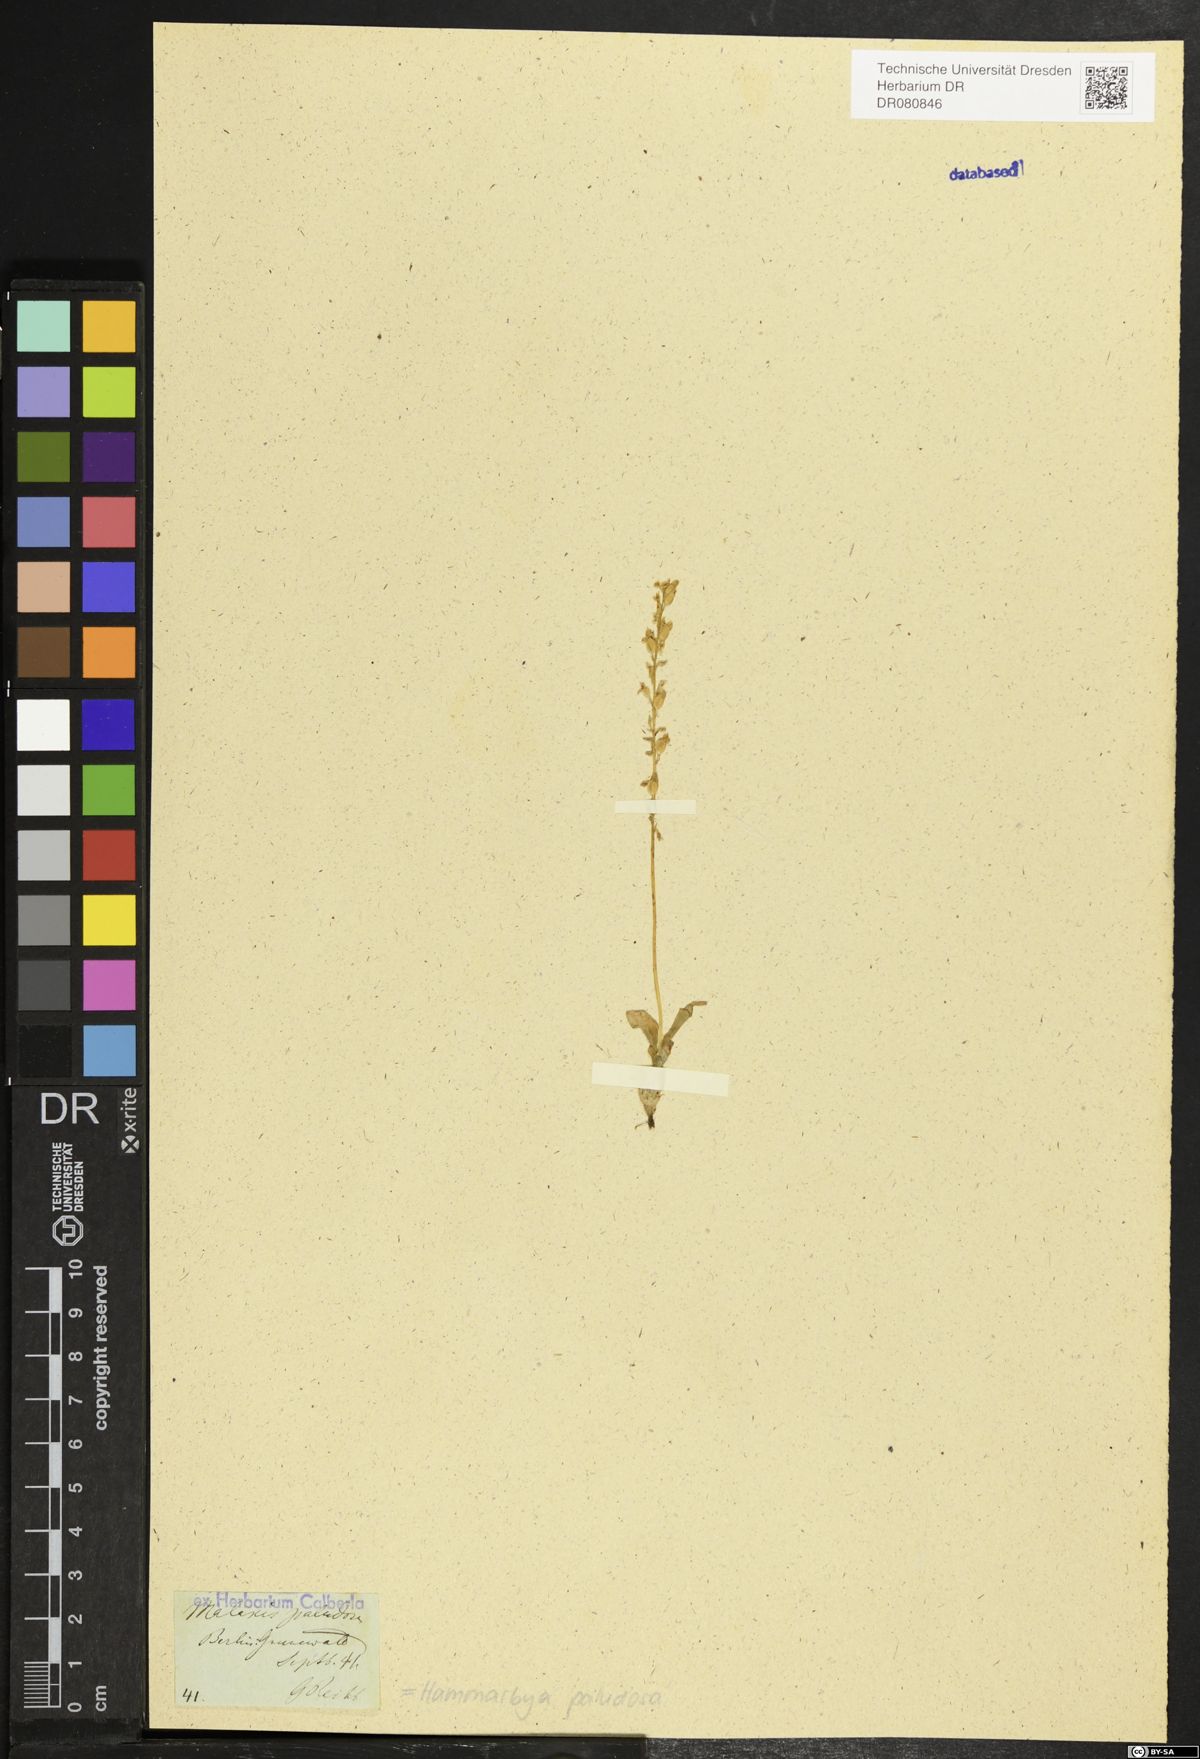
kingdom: Plantae
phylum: Tracheophyta
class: Liliopsida
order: Asparagales
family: Orchidaceae
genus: Hammarbya
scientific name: Hammarbya paludosa
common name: Bog orchid
